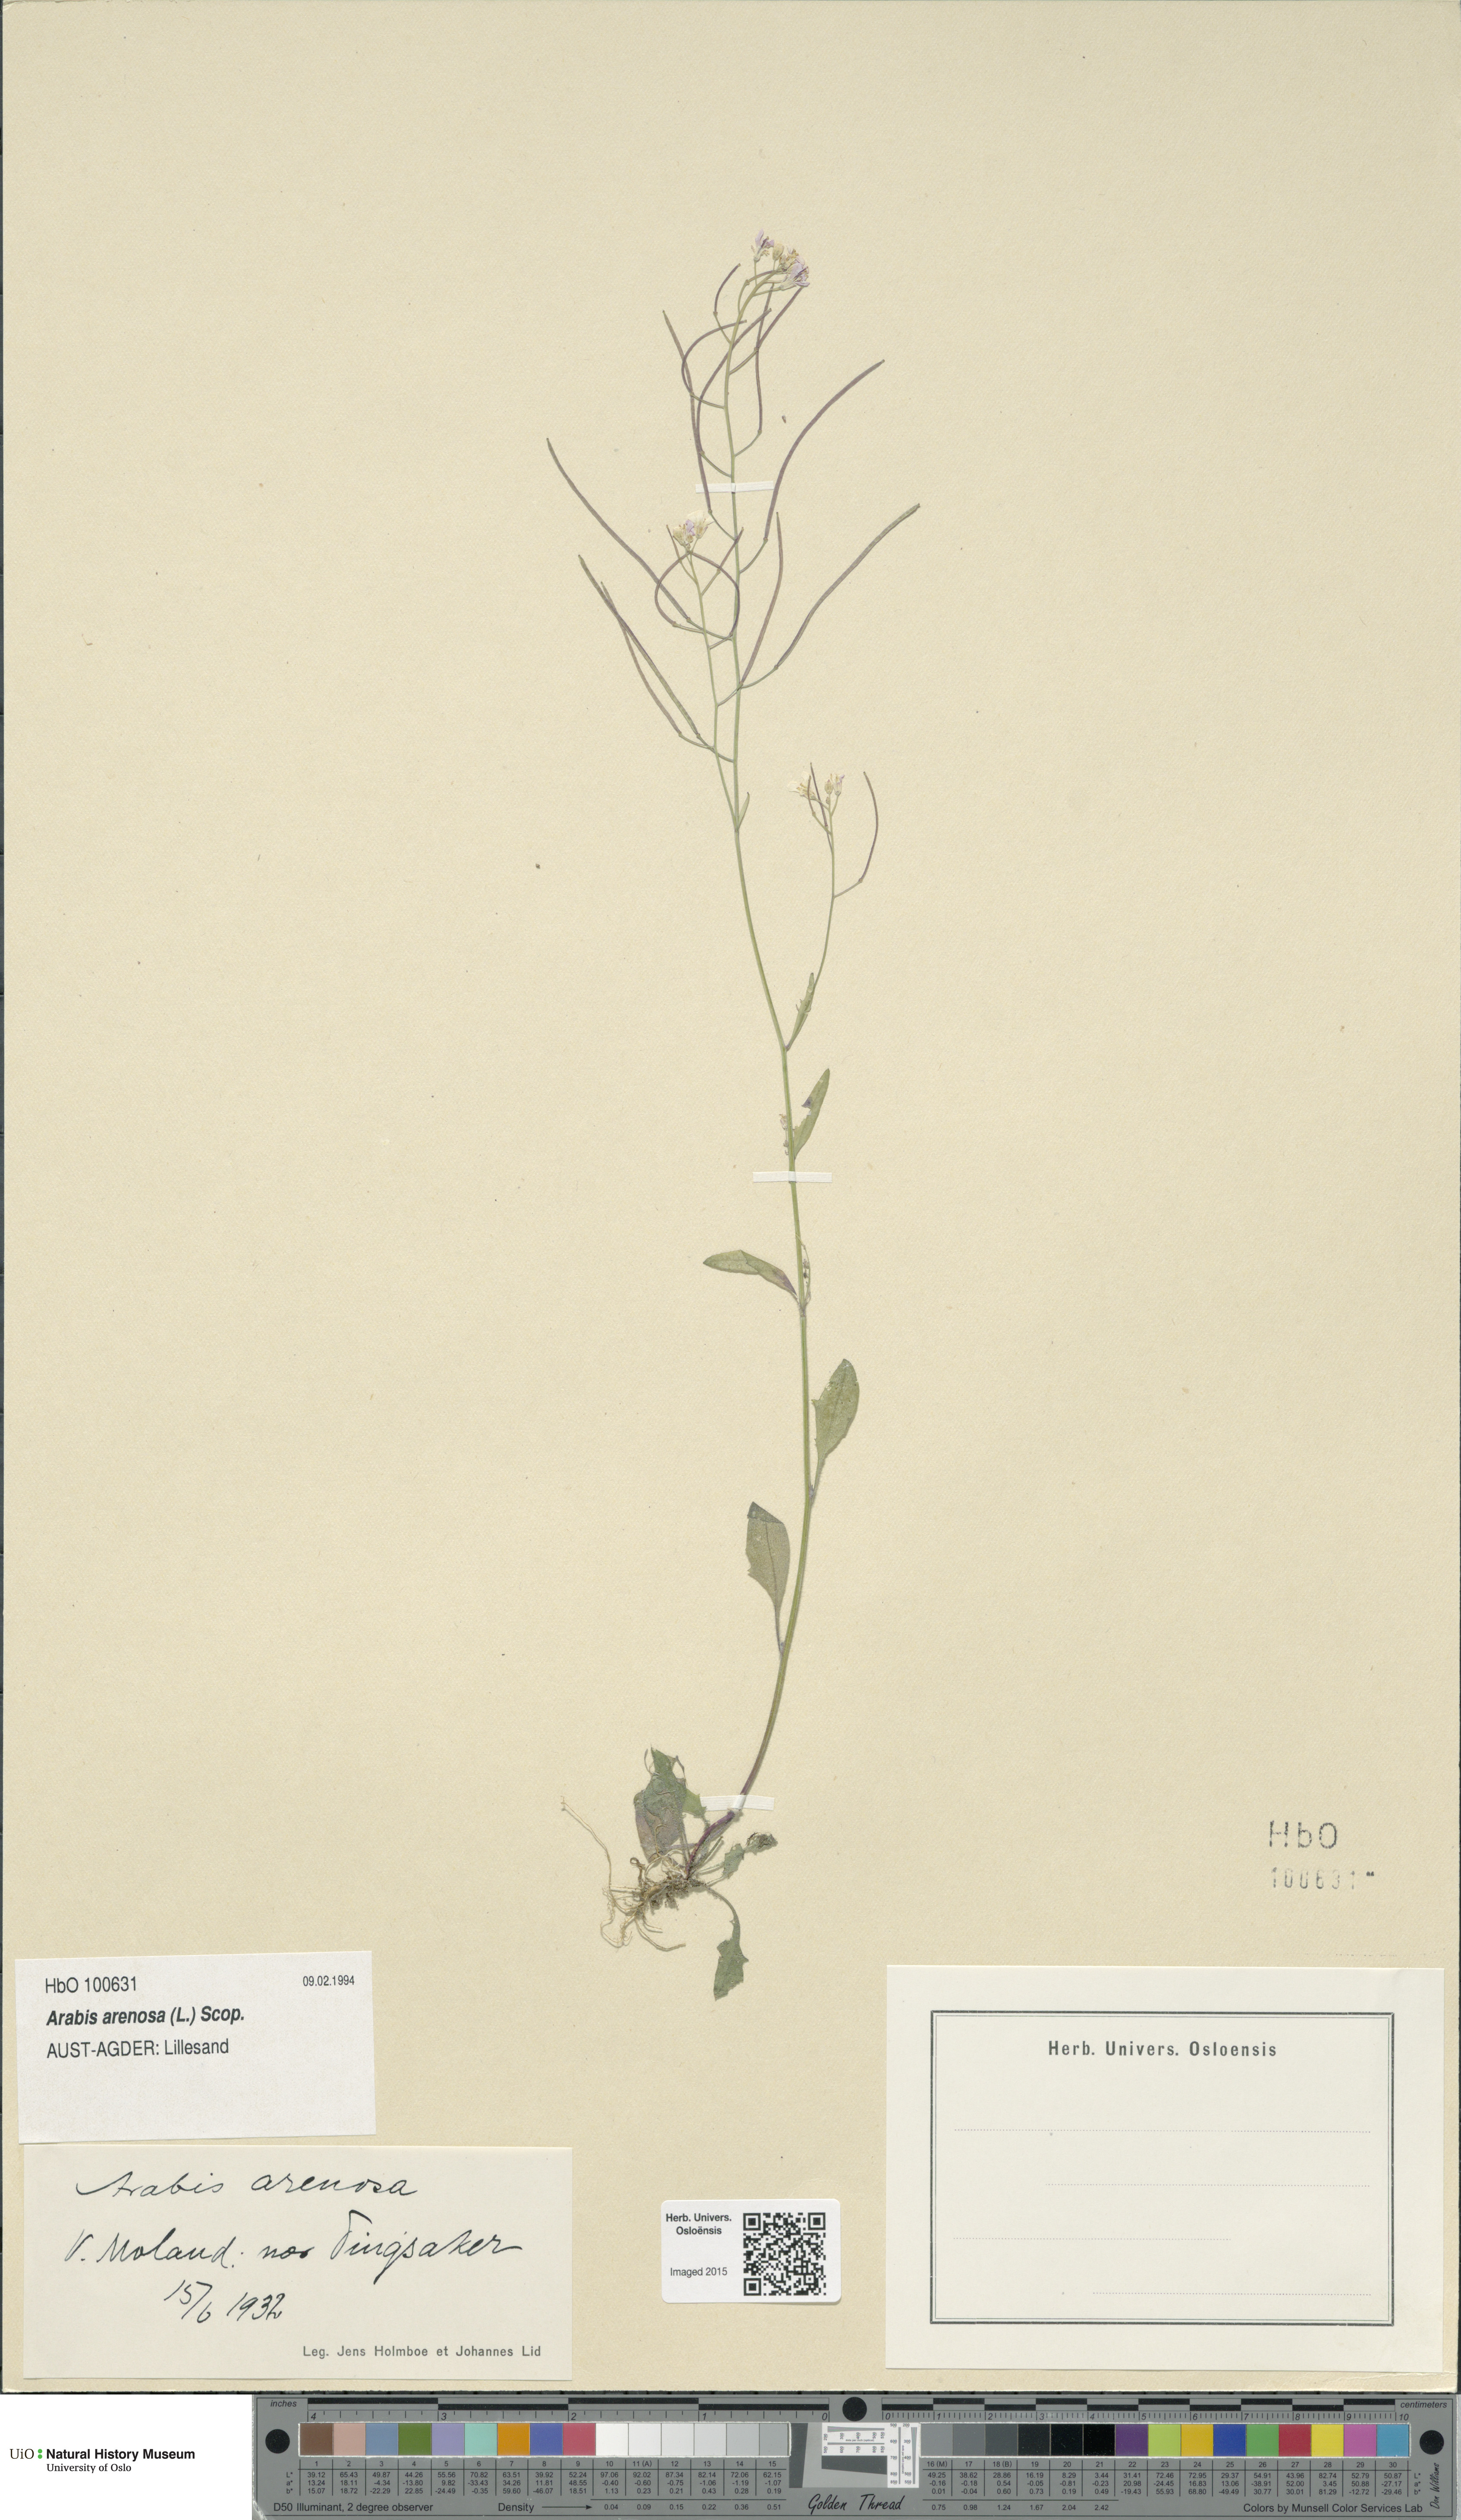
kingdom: Plantae
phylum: Tracheophyta
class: Magnoliopsida
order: Brassicales
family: Brassicaceae
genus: Arabidopsis
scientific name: Arabidopsis arenosa
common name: Sand rock-cress
